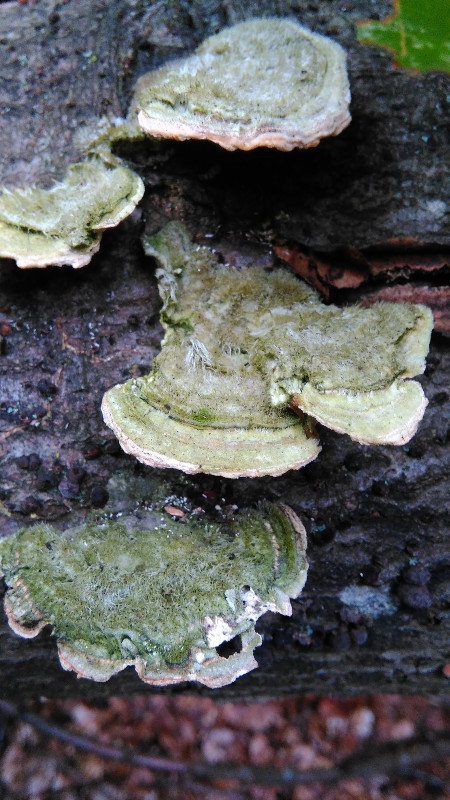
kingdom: Fungi
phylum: Basidiomycota
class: Agaricomycetes
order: Polyporales
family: Polyporaceae
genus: Trametes
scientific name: Trametes hirsuta
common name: håret læderporesvamp
